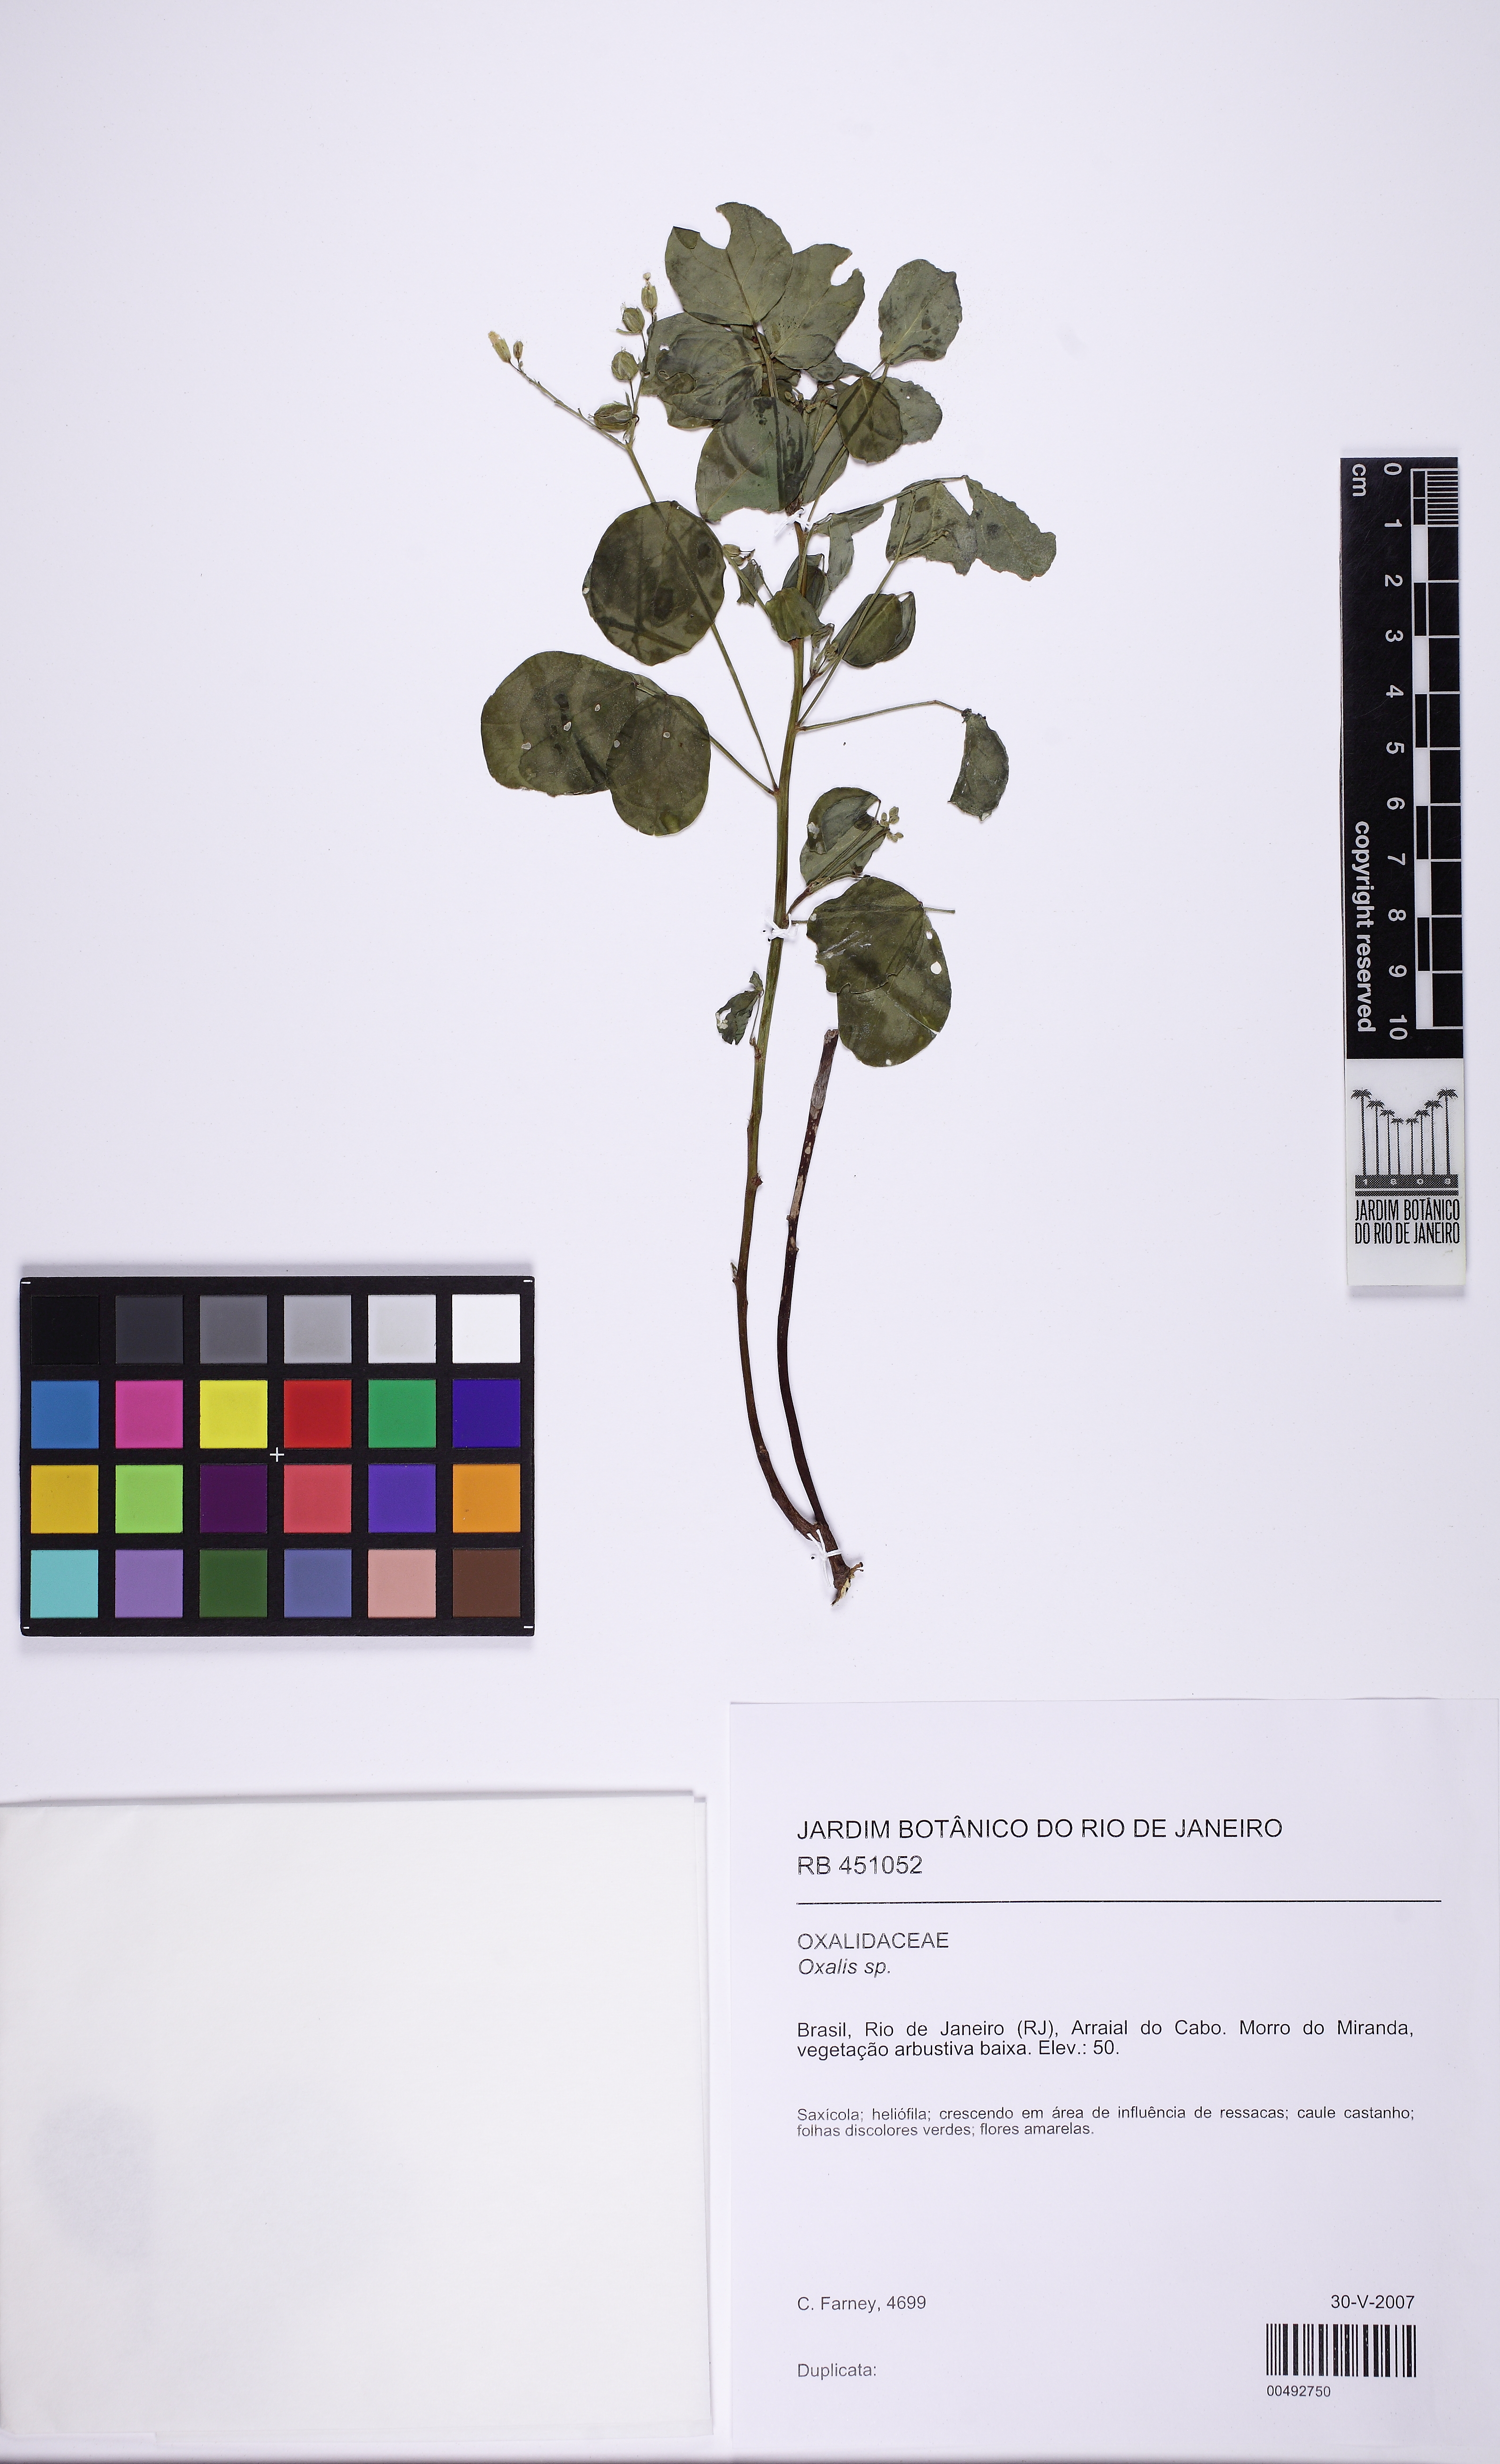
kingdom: Plantae
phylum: Tracheophyta
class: Magnoliopsida
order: Oxalidales
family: Oxalidaceae
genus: Oxalis
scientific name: Oxalis sepium
